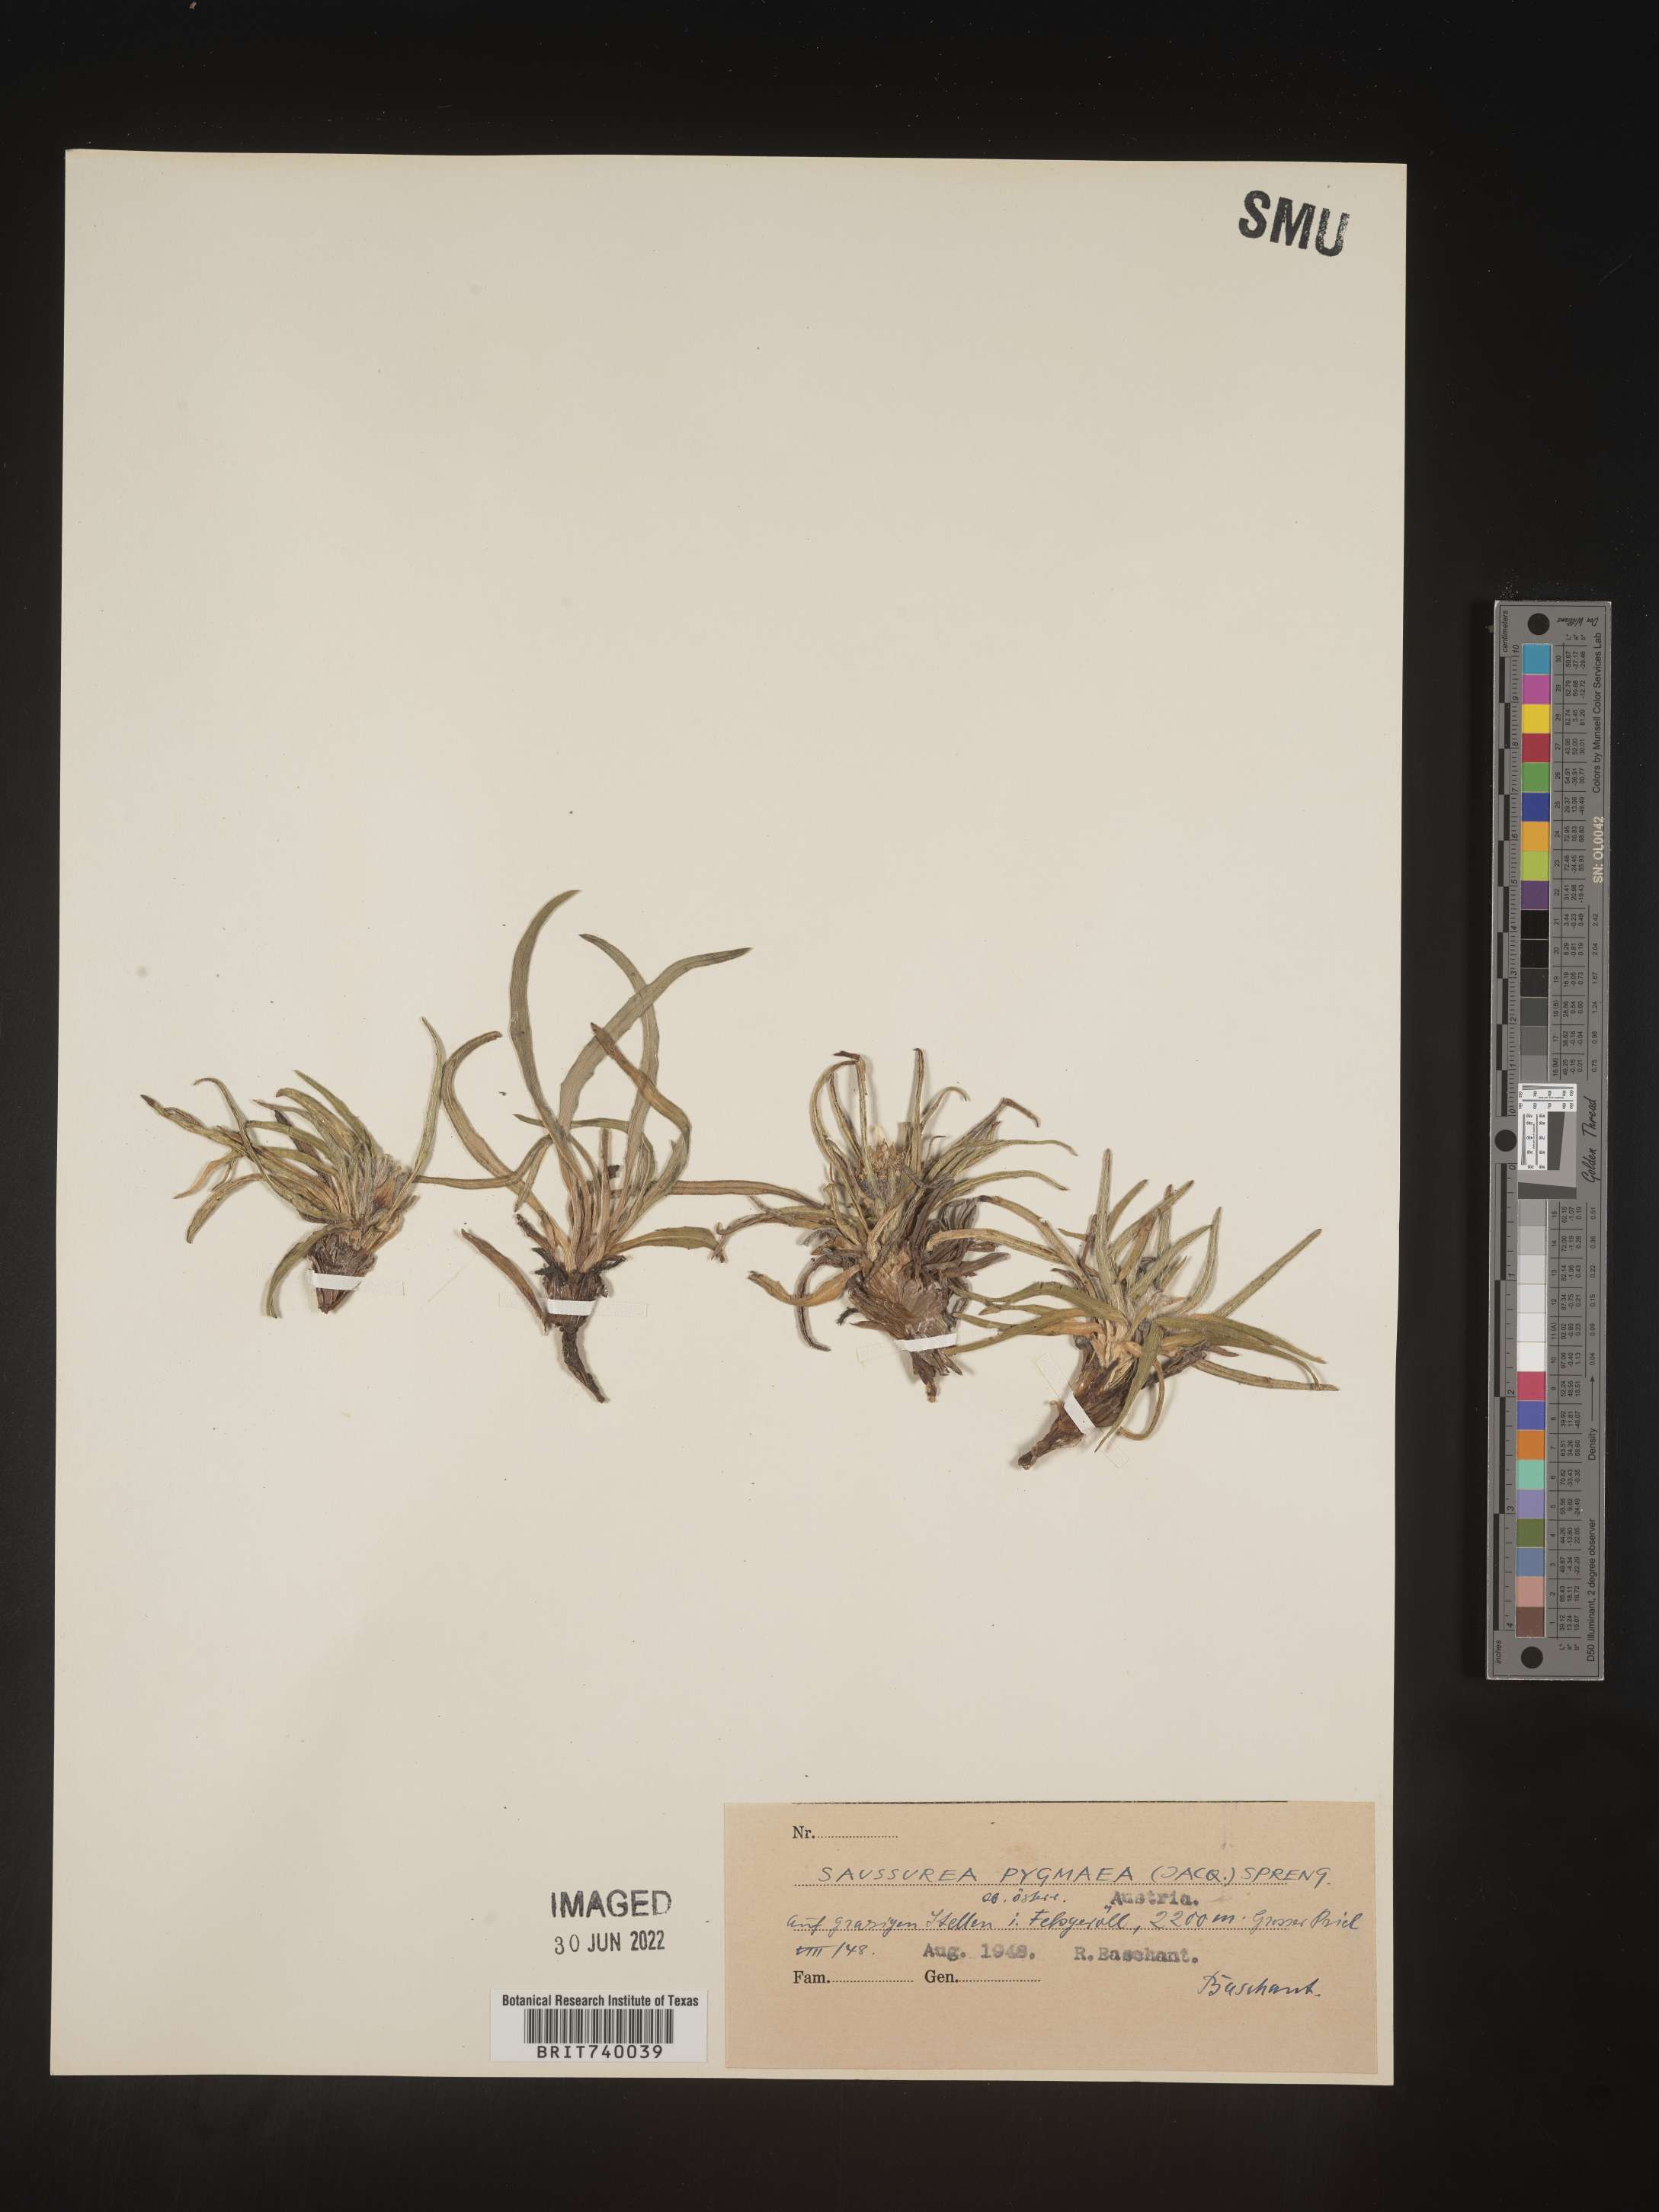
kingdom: Plantae
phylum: Tracheophyta
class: Magnoliopsida
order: Asterales
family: Asteraceae
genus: Saussurea
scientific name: Saussurea
